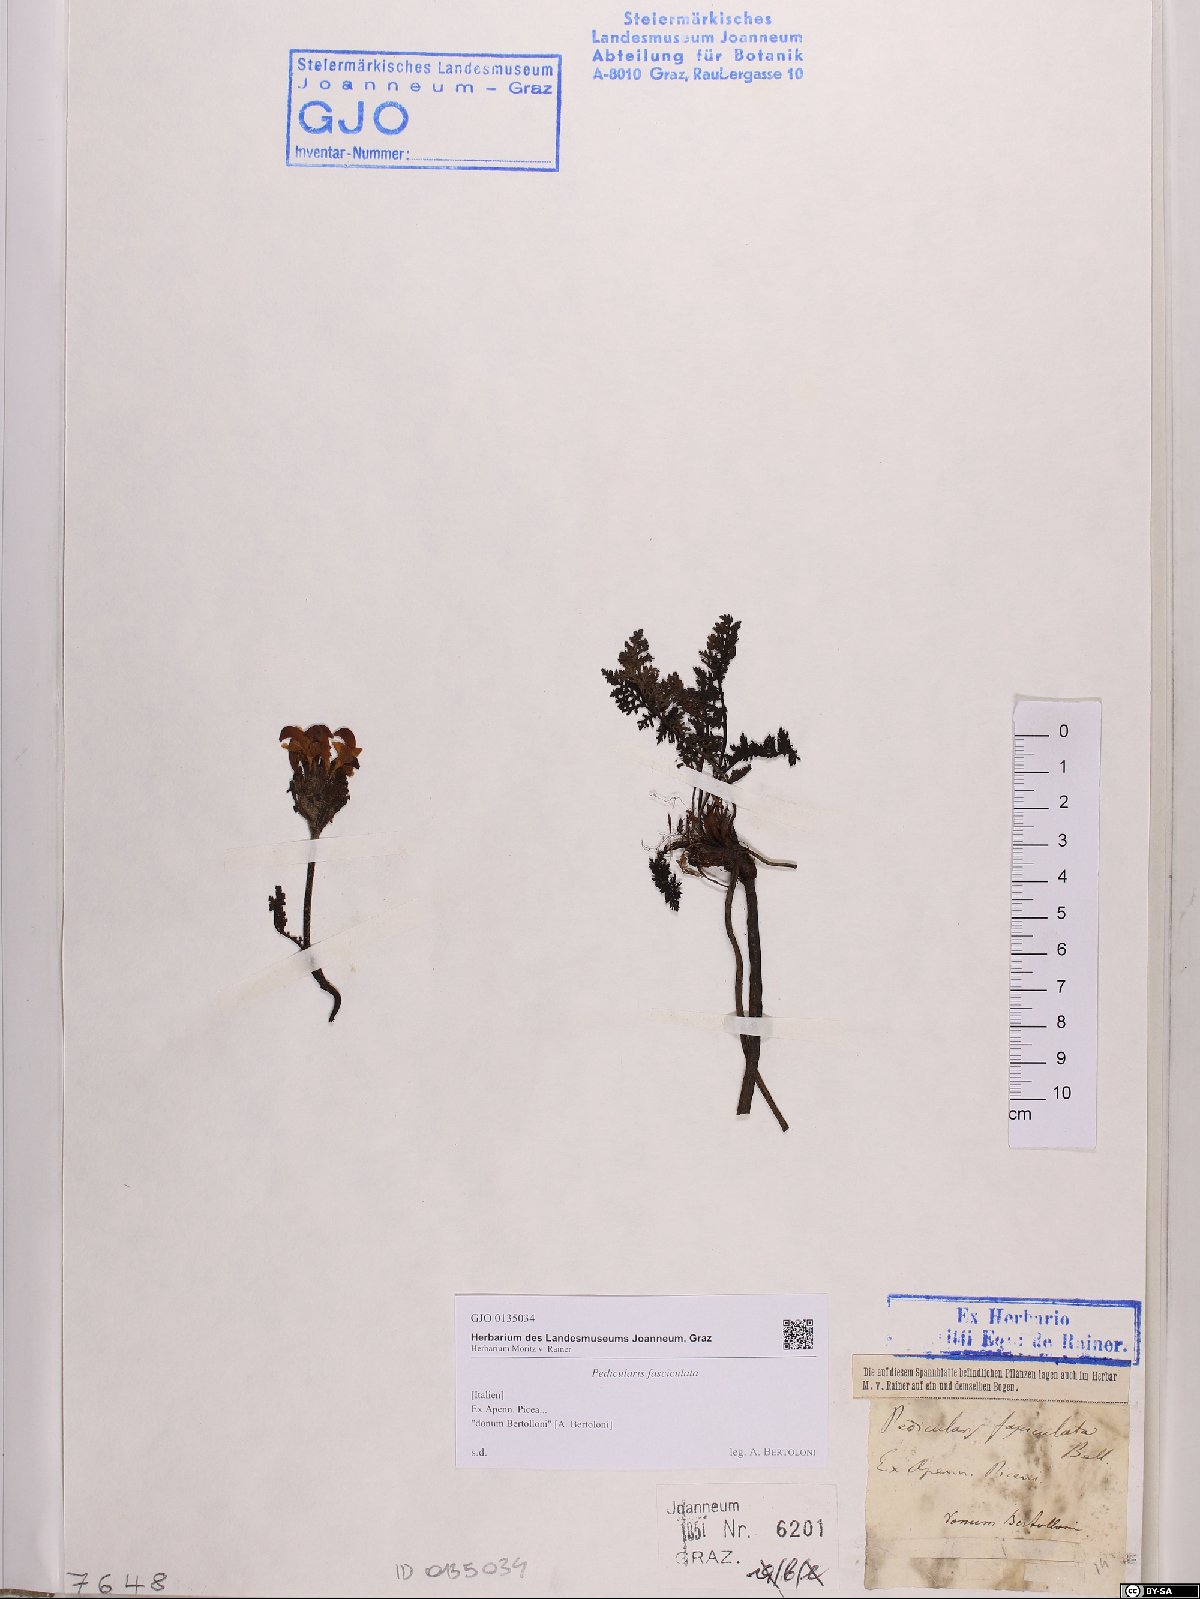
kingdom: Plantae
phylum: Tracheophyta
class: Magnoliopsida
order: Lamiales
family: Orobanchaceae
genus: Pedicularis
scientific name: Pedicularis gyroflexa
